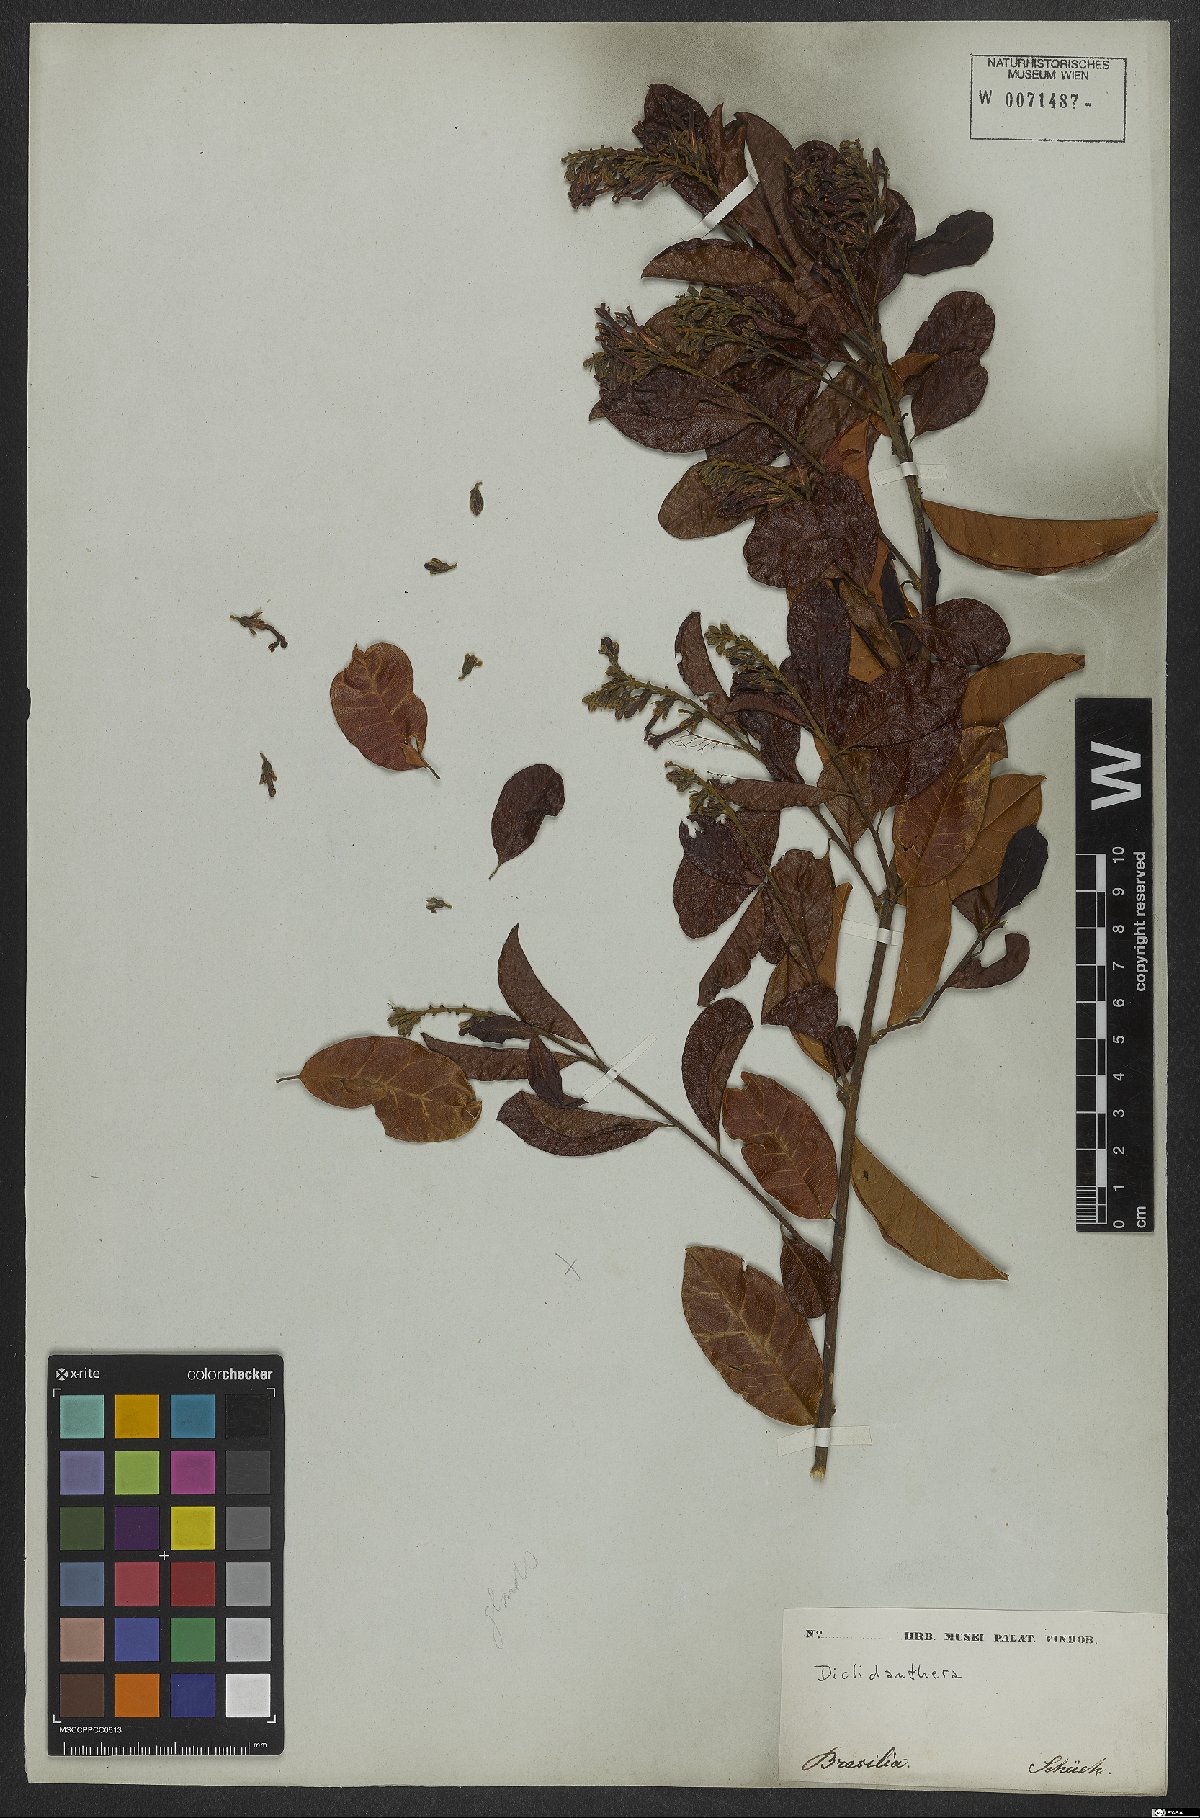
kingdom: Plantae
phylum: Tracheophyta
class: Magnoliopsida
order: Fabales
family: Polygalaceae
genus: Diclidanthera
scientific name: Diclidanthera
